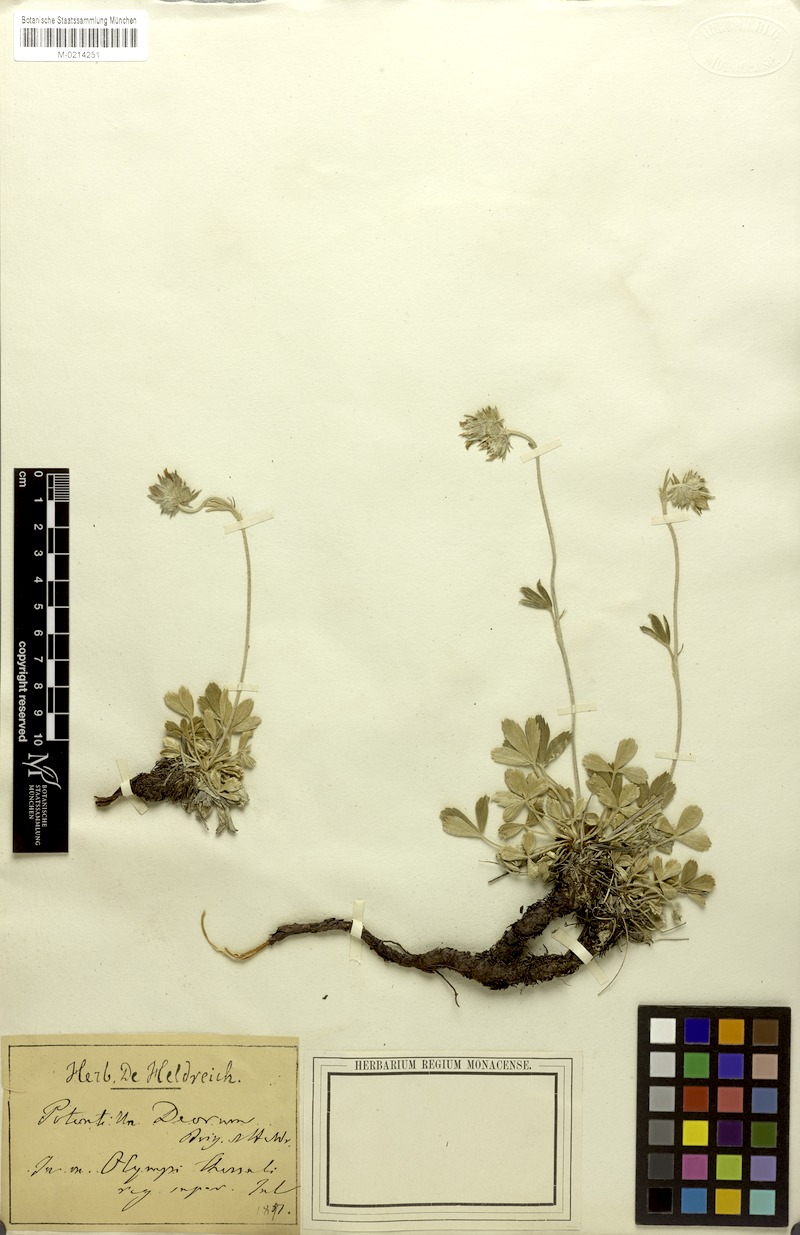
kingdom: Plantae
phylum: Tracheophyta
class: Magnoliopsida
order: Rosales
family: Rosaceae
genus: Potentilla
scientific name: Potentilla deorum
